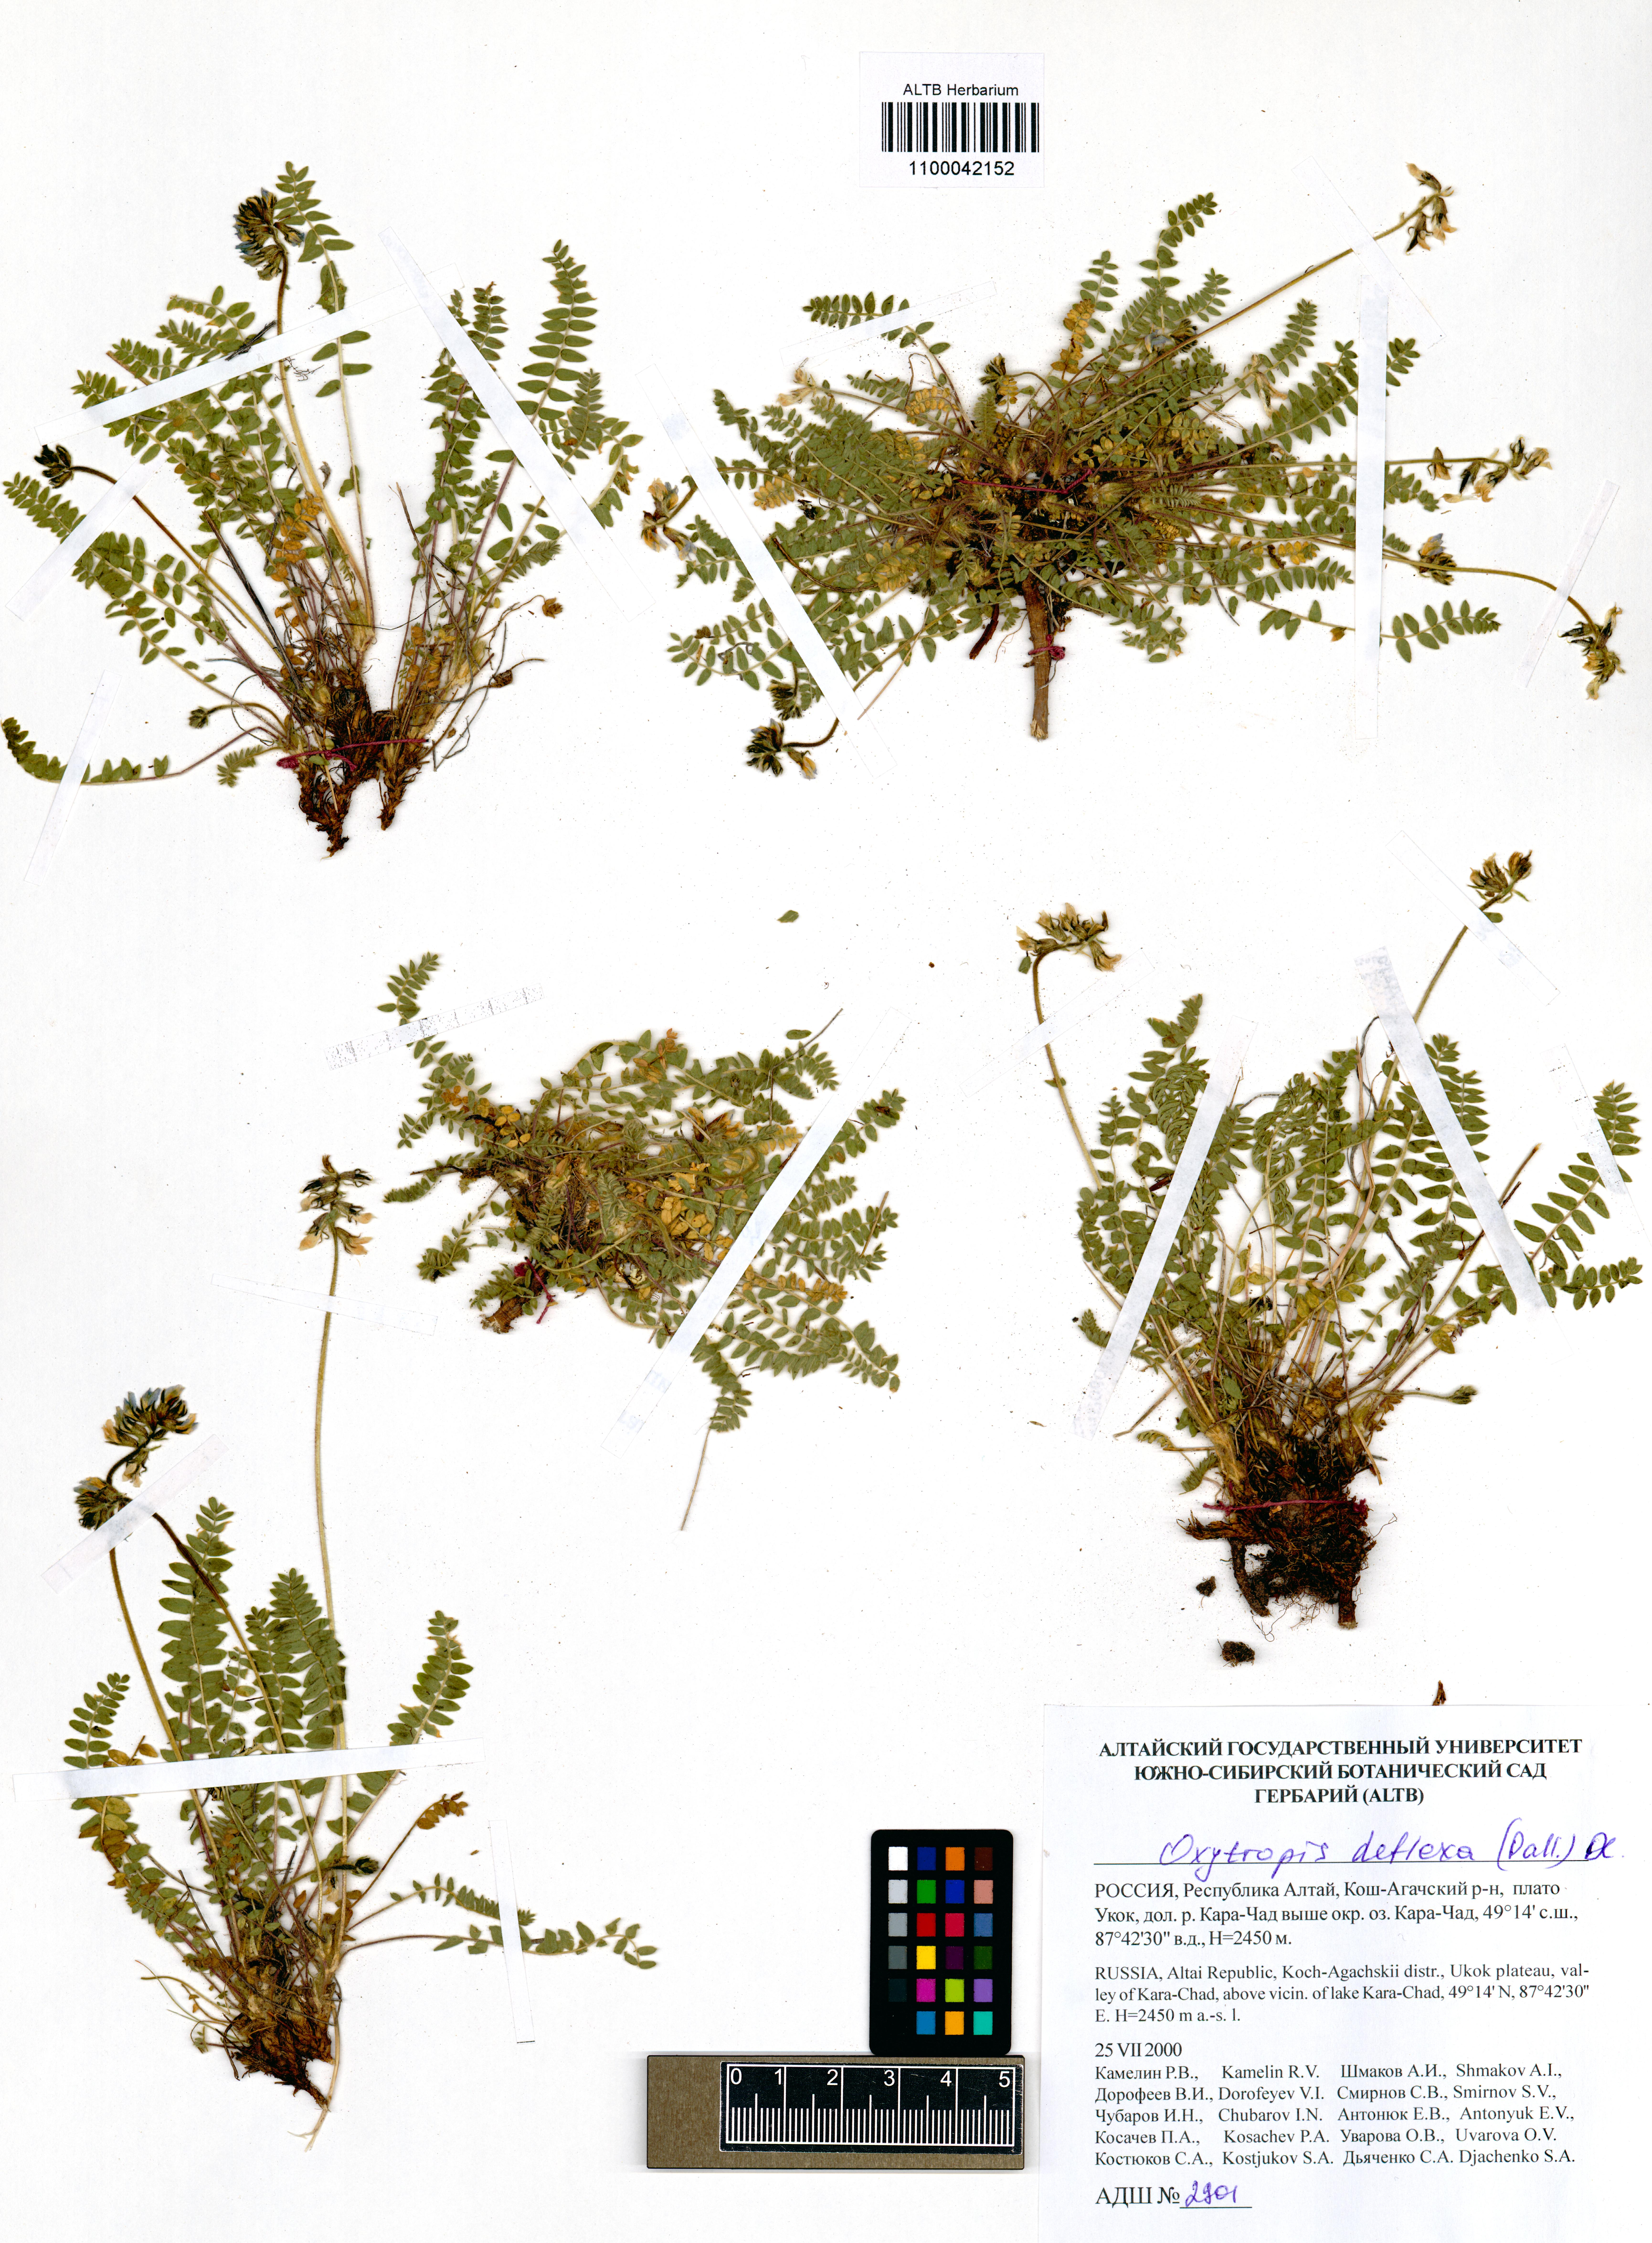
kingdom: Plantae
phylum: Tracheophyta
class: Magnoliopsida
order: Fabales
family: Fabaceae
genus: Oxytropis
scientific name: Oxytropis deflexa
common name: Stemmed oxytrope
